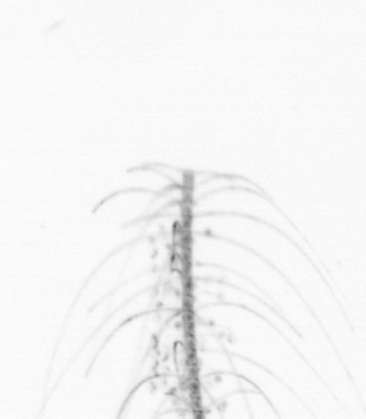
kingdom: Chromista
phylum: Ochrophyta
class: Bacillariophyceae
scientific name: Bacillariophyceae
